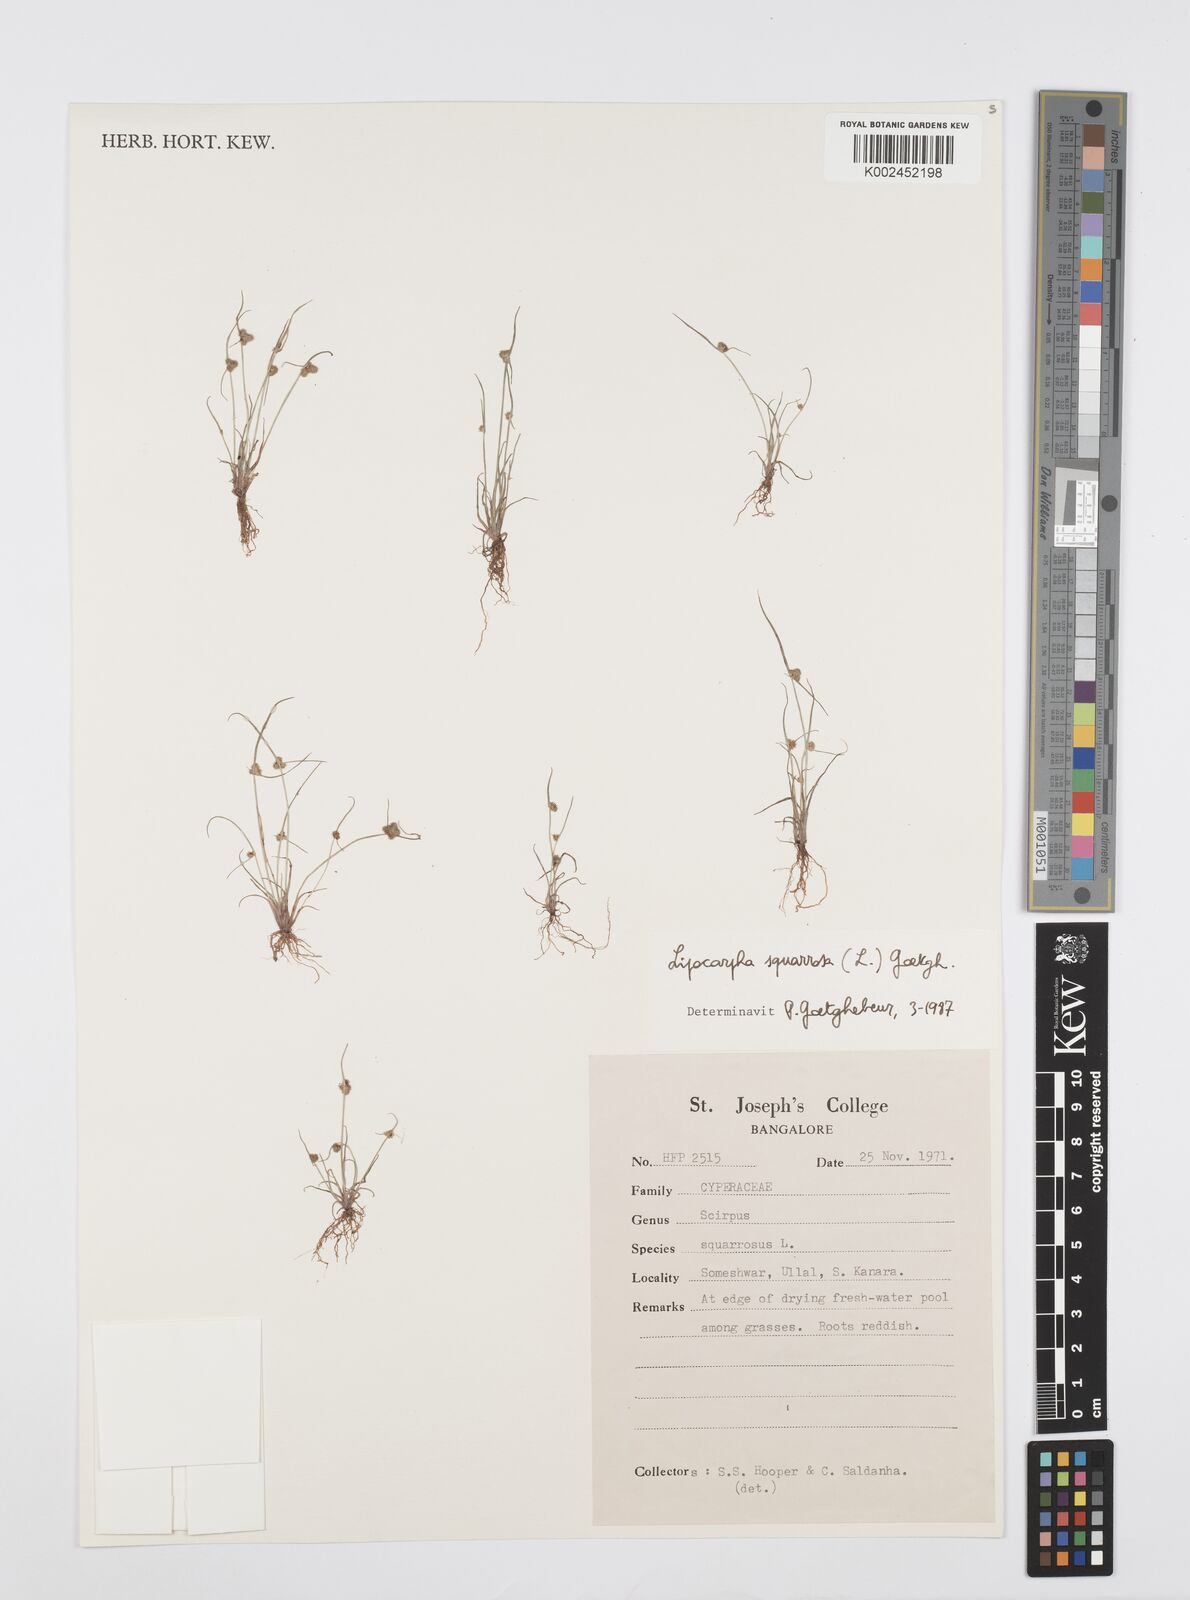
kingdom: Plantae
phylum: Tracheophyta
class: Liliopsida
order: Poales
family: Cyperaceae
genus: Cyperus
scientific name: Cyperus squarrosus
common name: Awned cyperus
